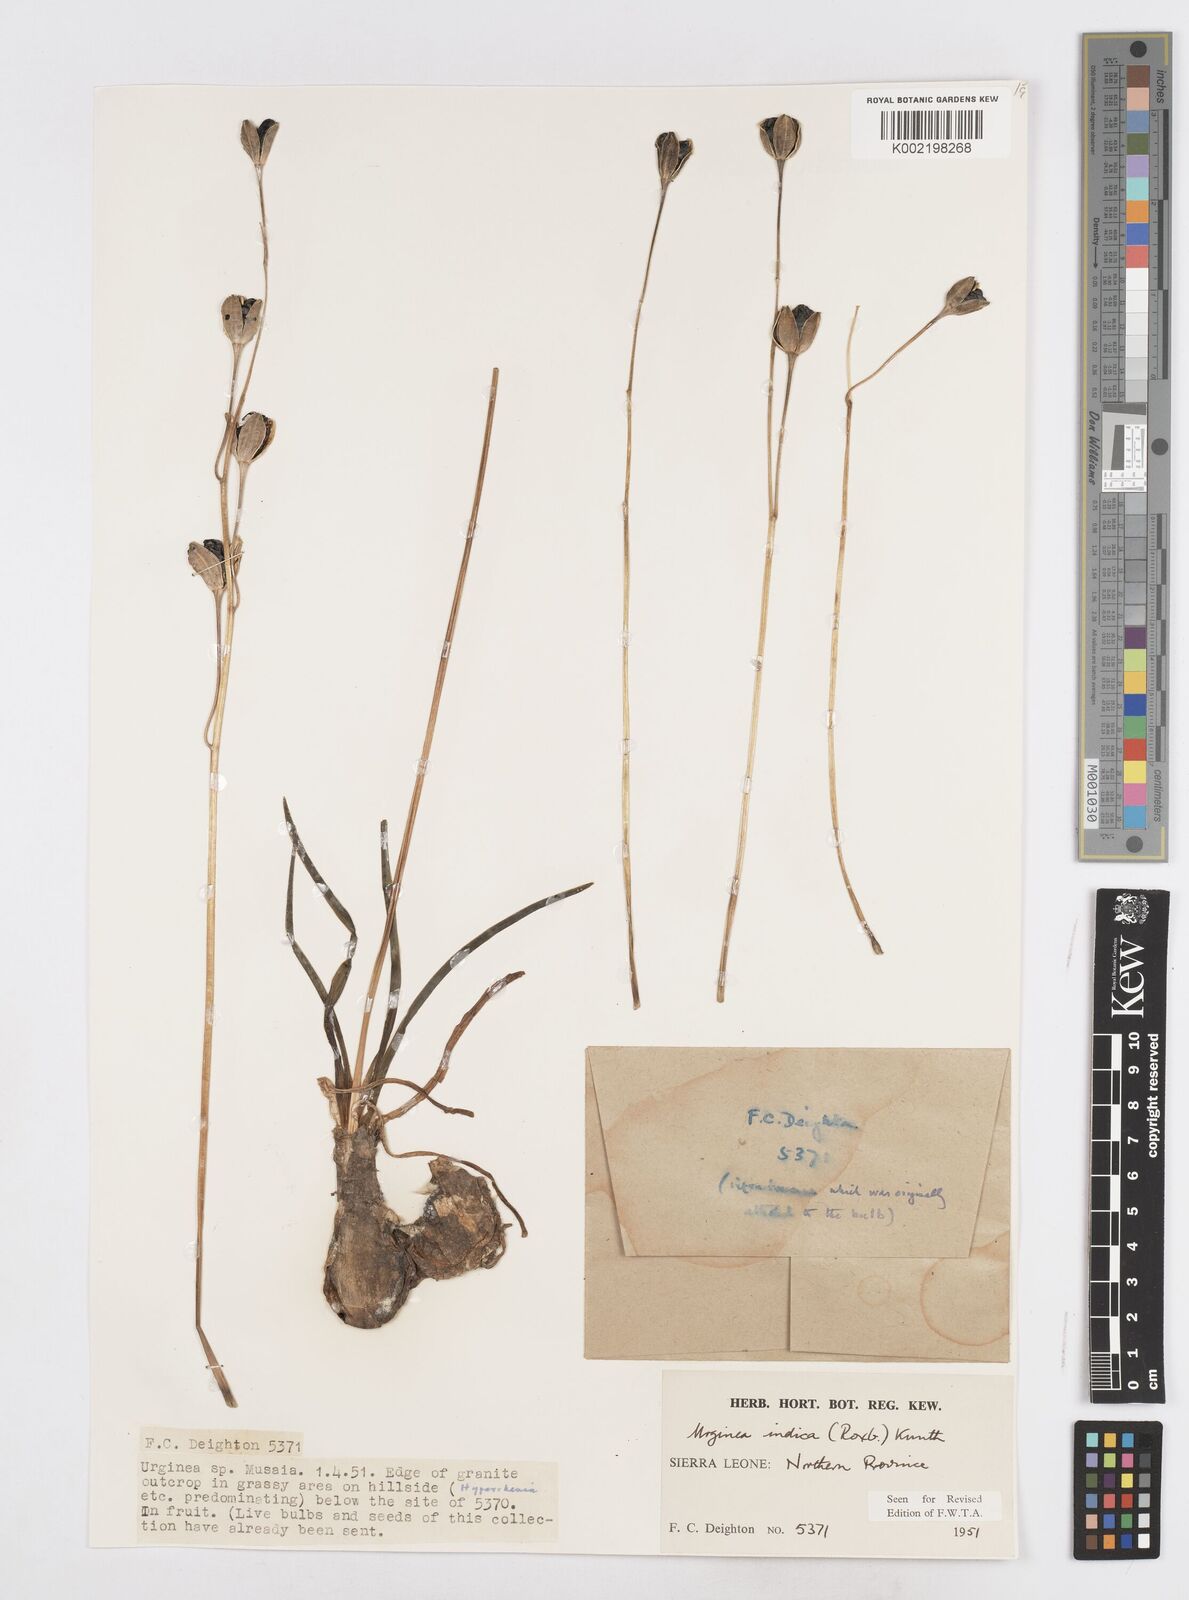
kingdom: Plantae
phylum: Tracheophyta
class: Liliopsida
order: Asparagales
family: Asparagaceae
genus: Drimia
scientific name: Drimia indica
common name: Indian-squill
